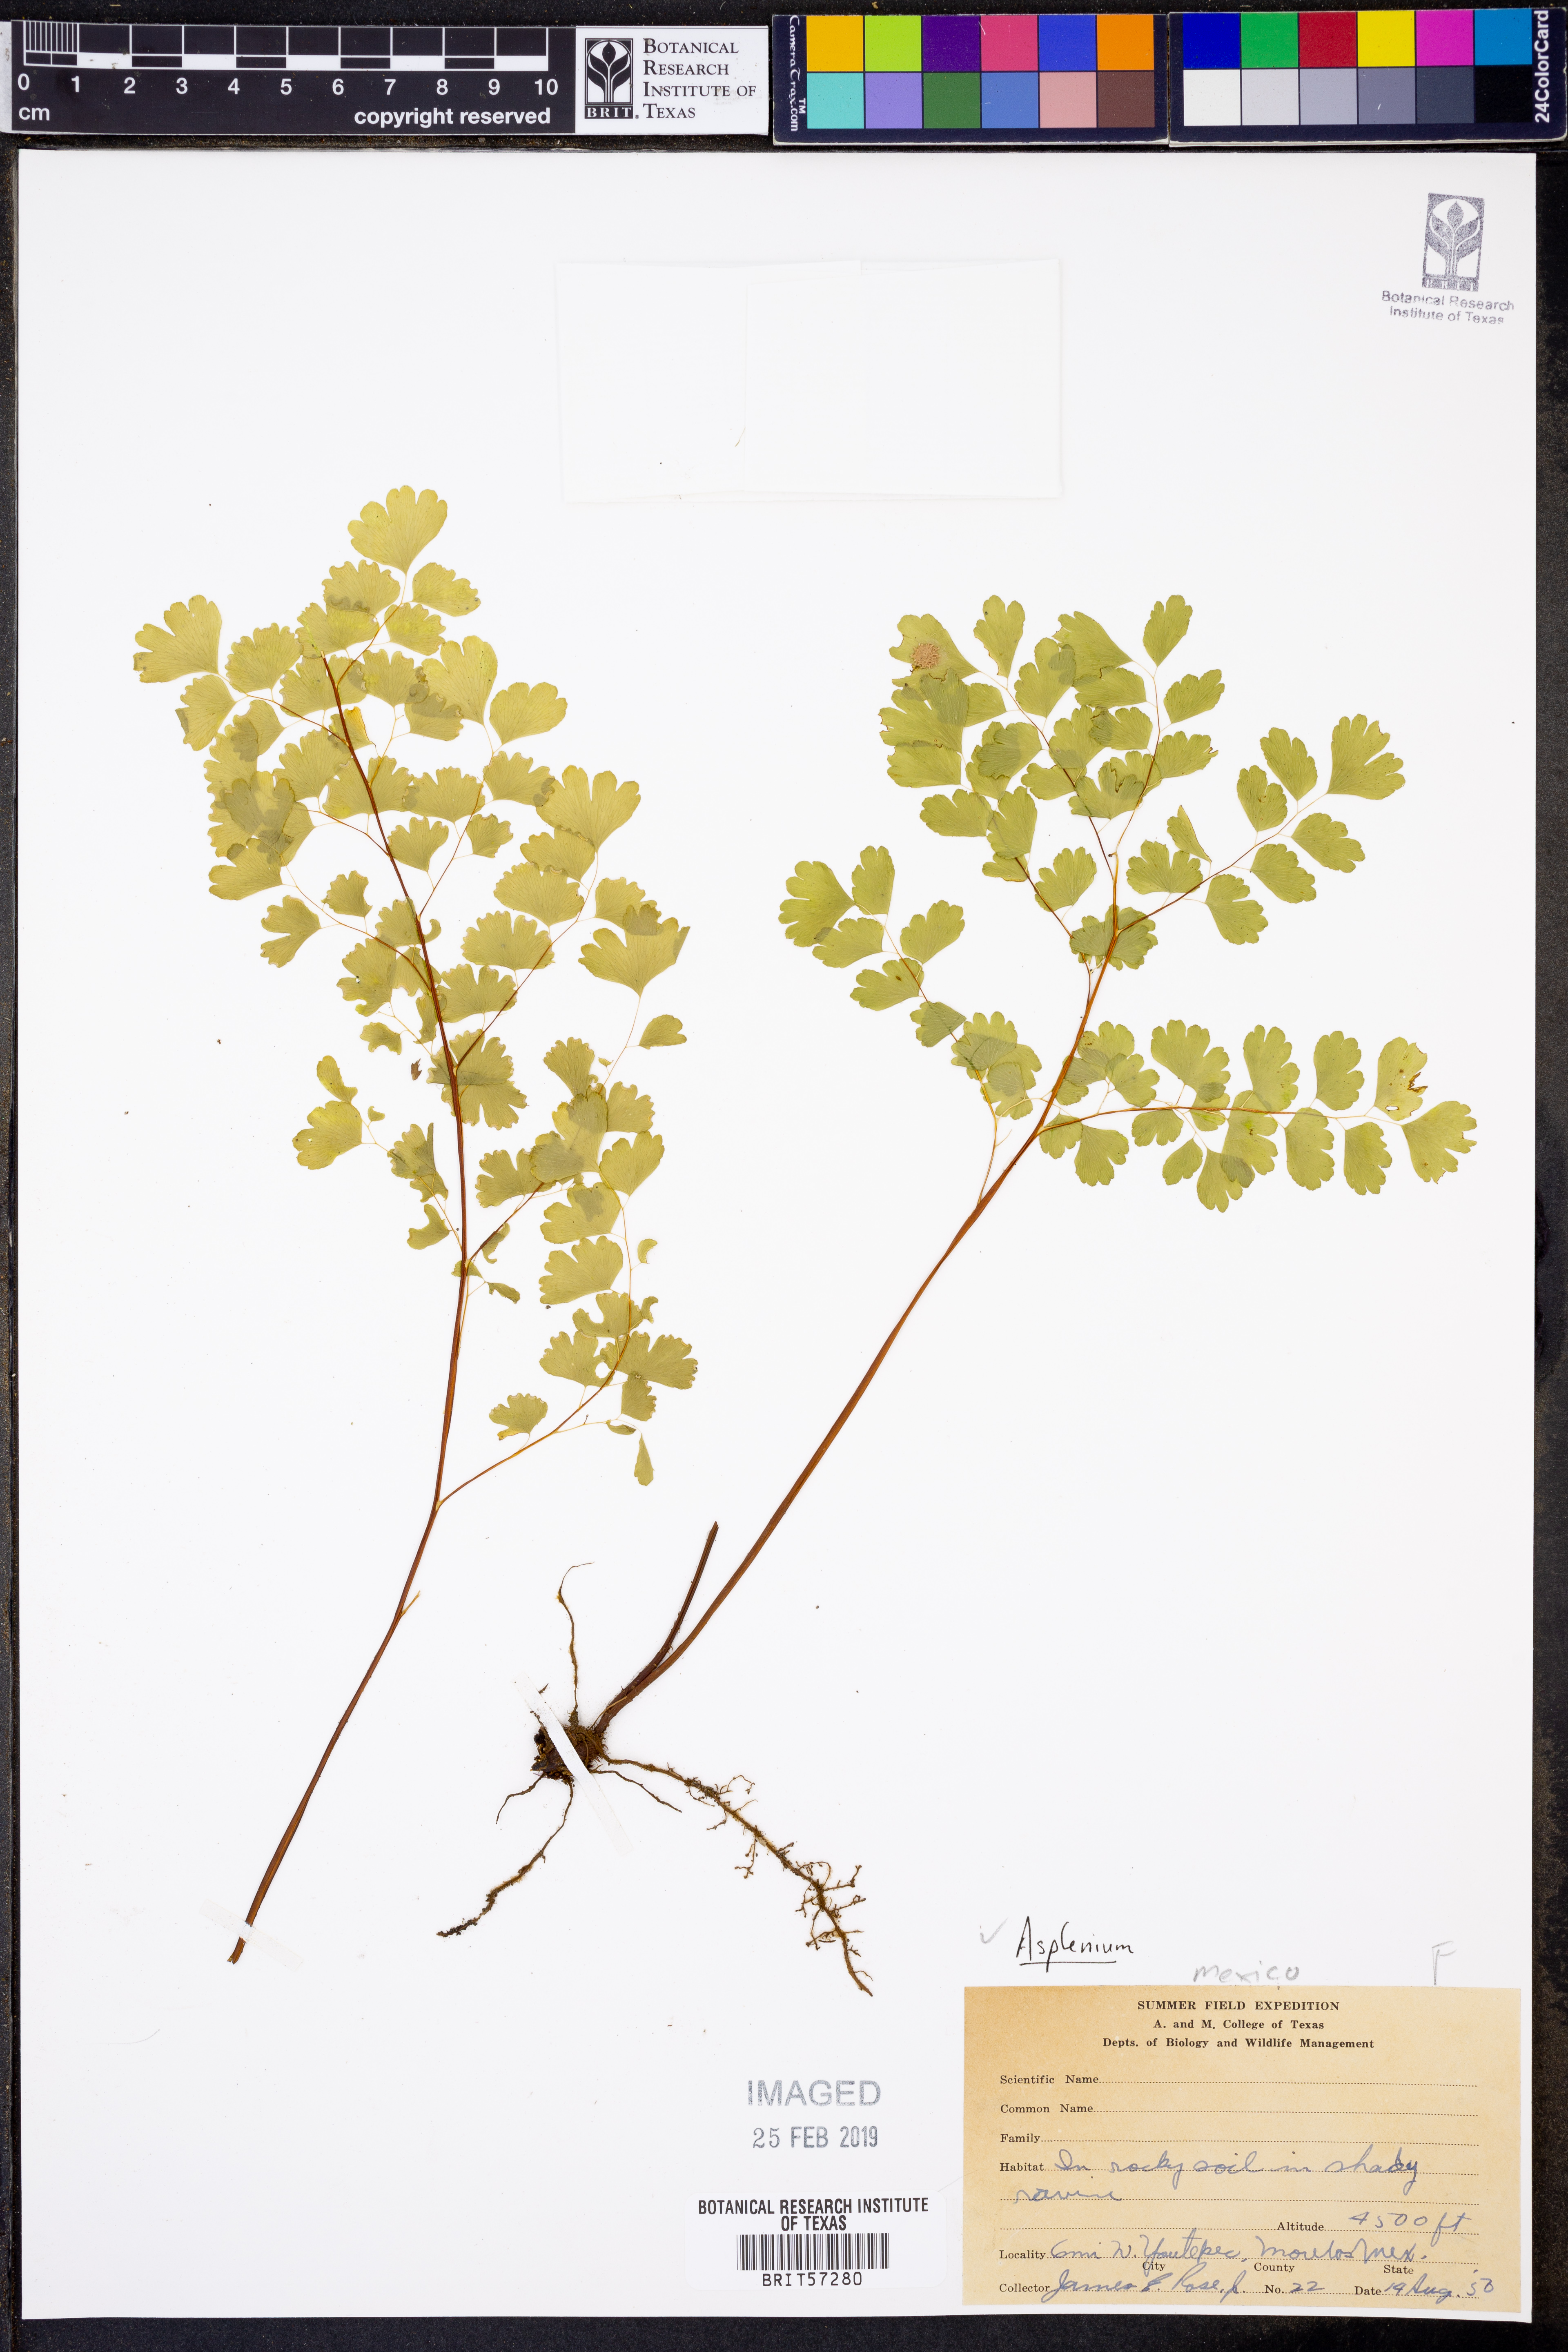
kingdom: Plantae
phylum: Tracheophyta
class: Polypodiopsida
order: Polypodiales
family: Aspleniaceae
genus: Asplenium
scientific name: Asplenium
